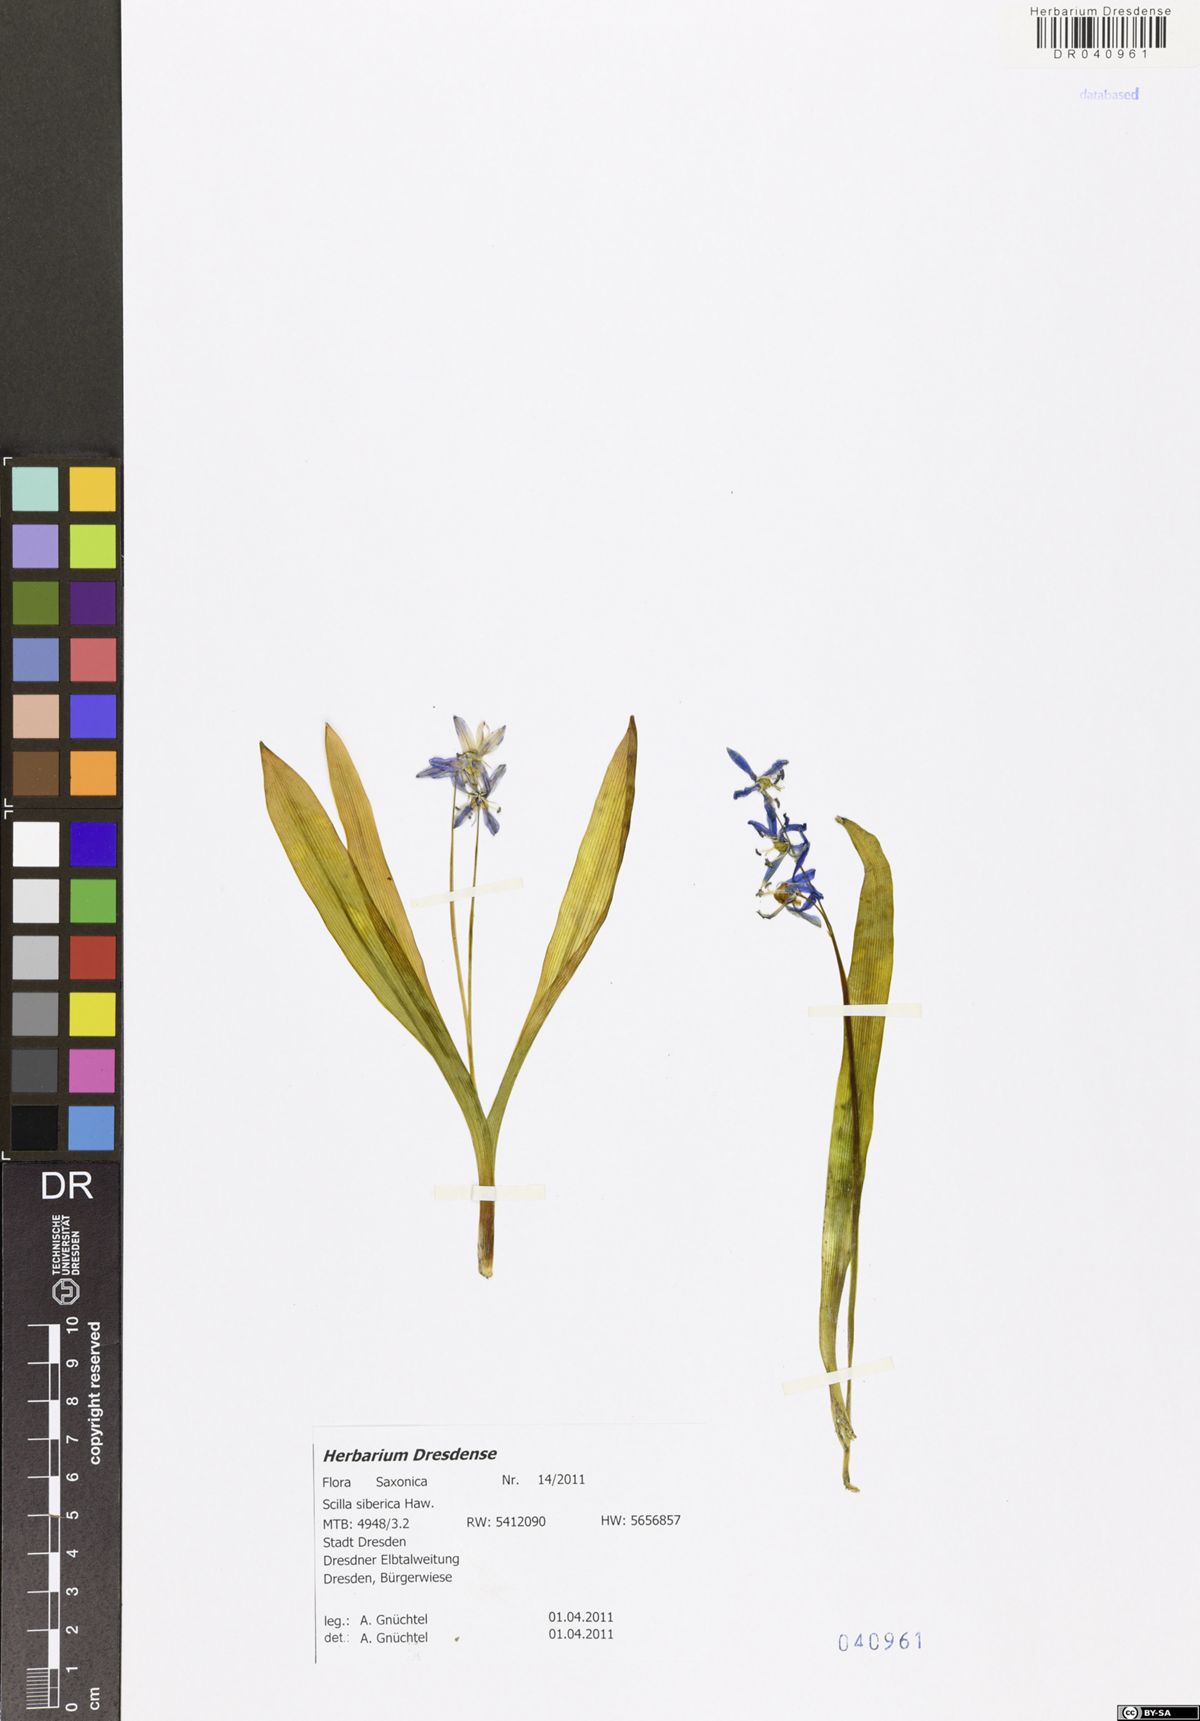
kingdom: Plantae
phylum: Tracheophyta
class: Liliopsida
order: Asparagales
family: Asparagaceae
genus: Scilla
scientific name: Scilla siberica
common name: Siberian squill
